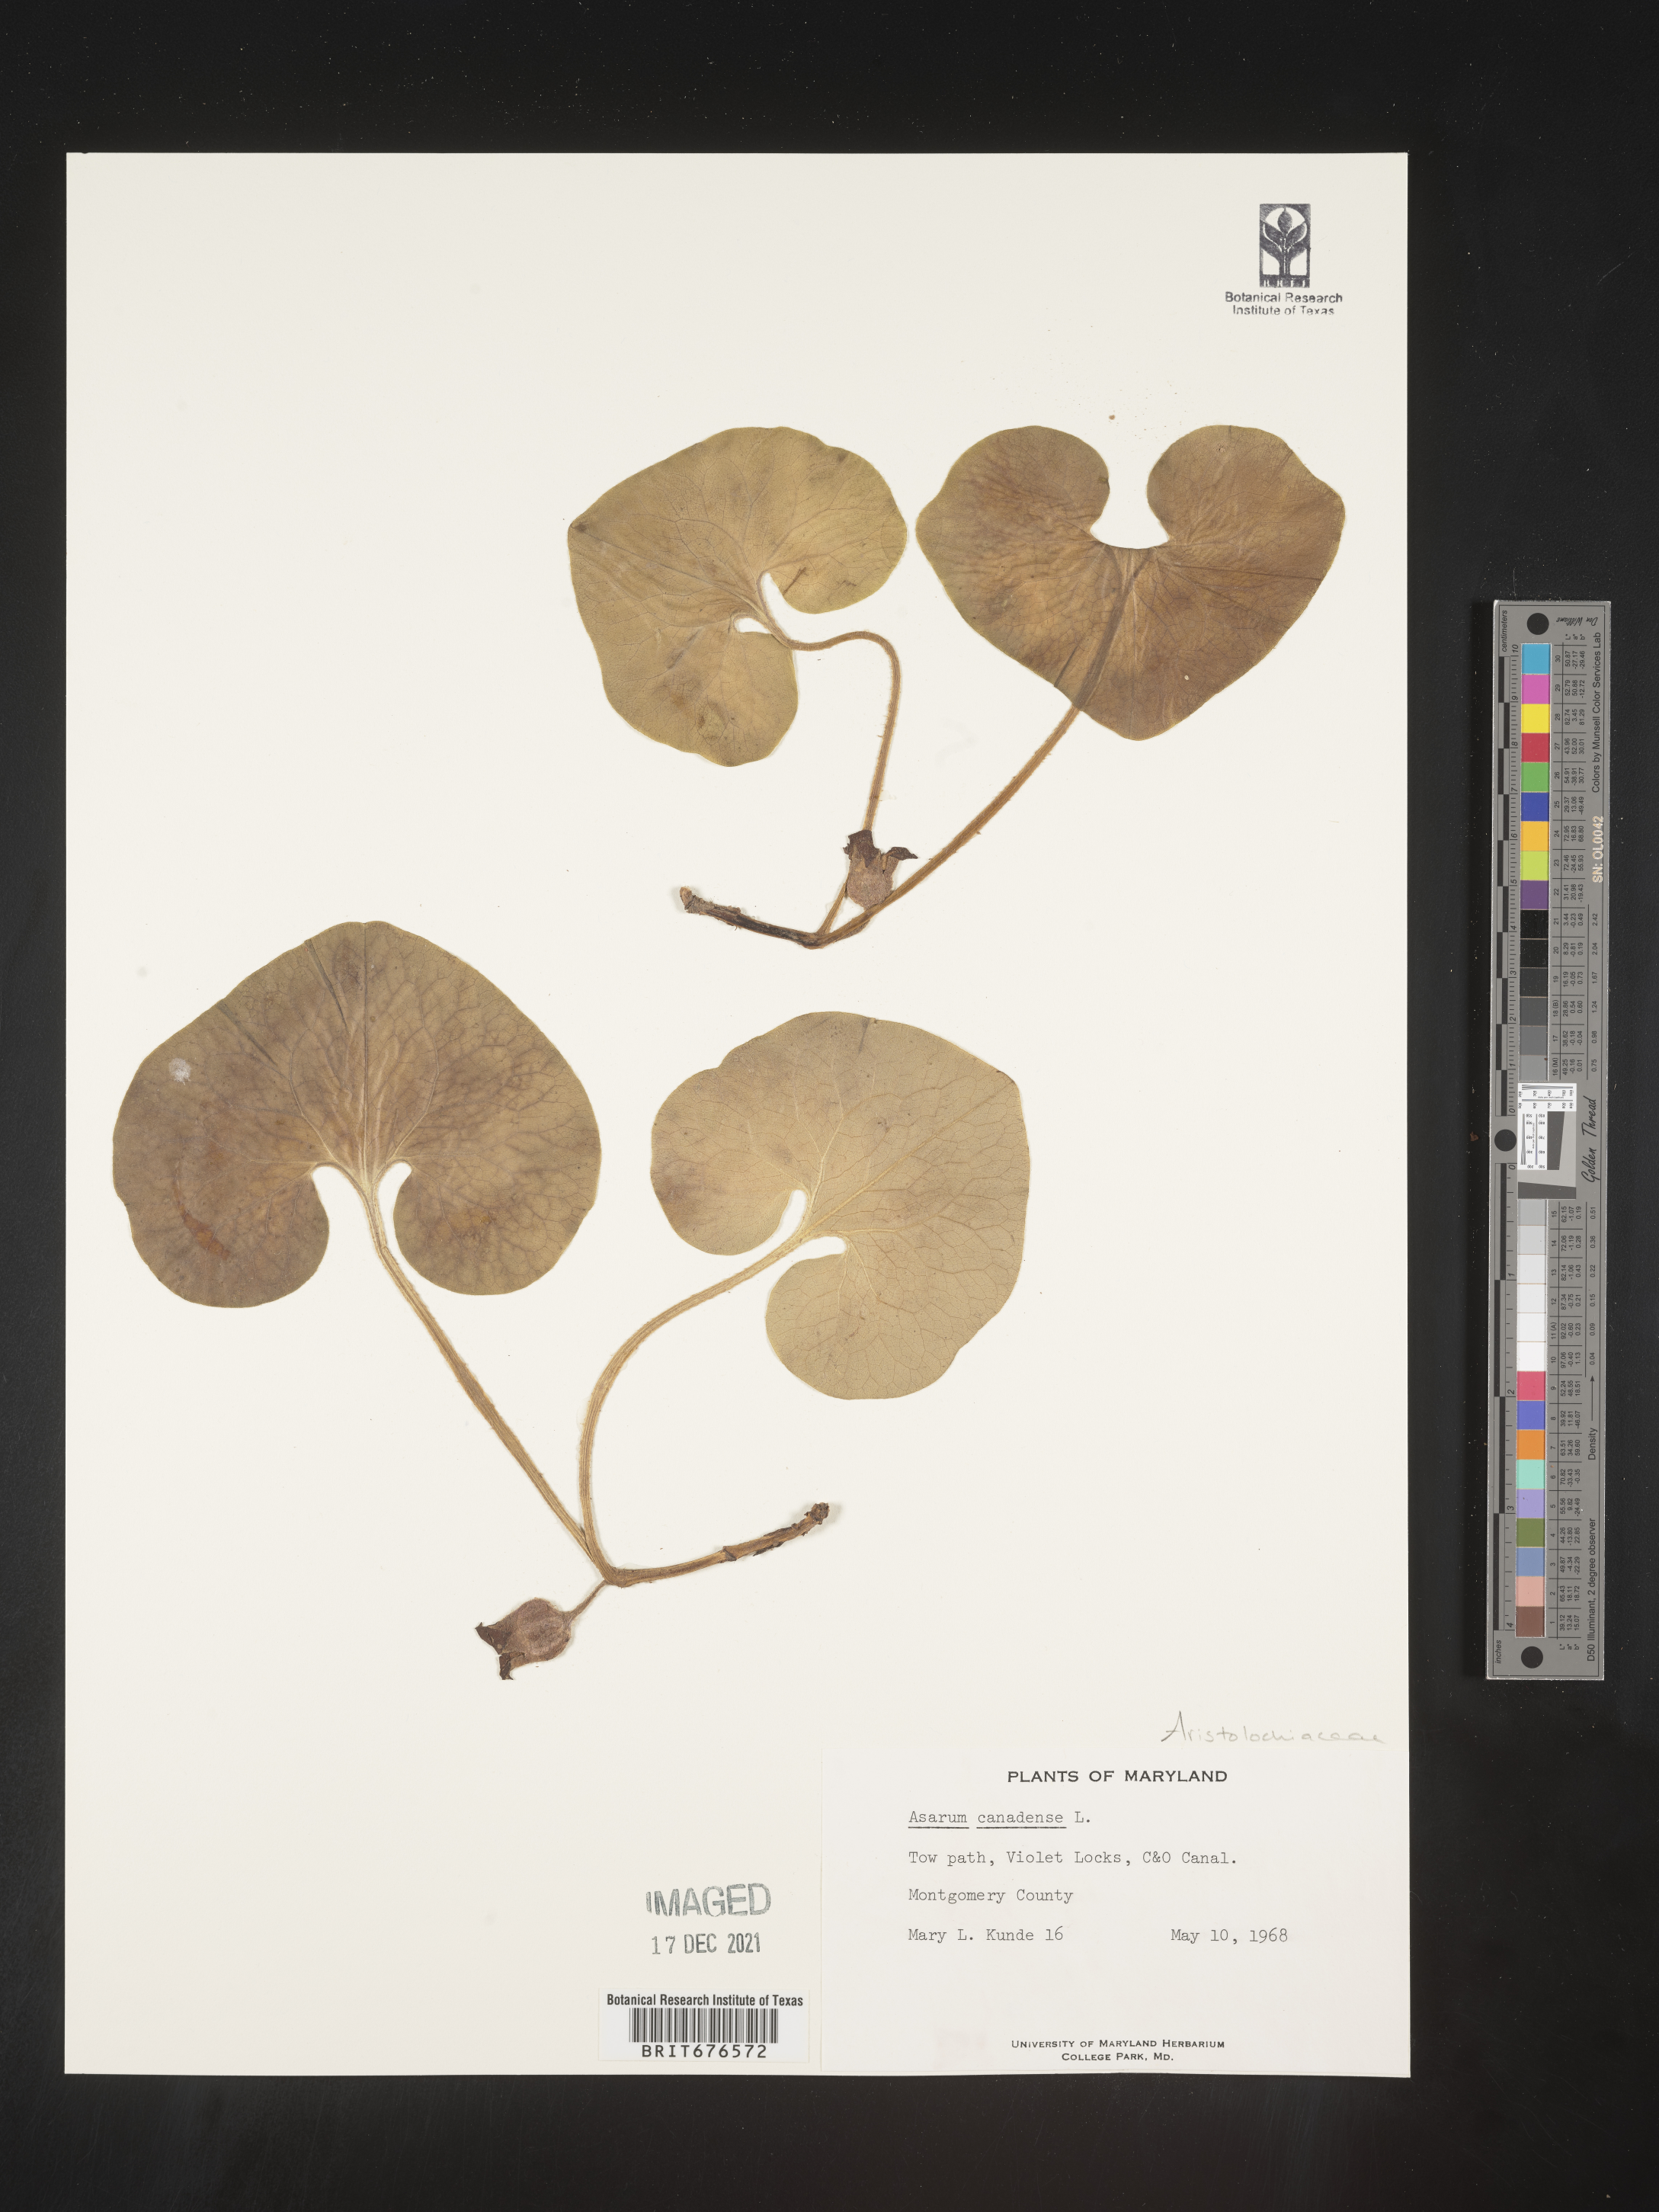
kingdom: Plantae
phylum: Tracheophyta
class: Magnoliopsida
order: Piperales
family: Aristolochiaceae
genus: Asarum
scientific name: Asarum canadense
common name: Wild ginger
